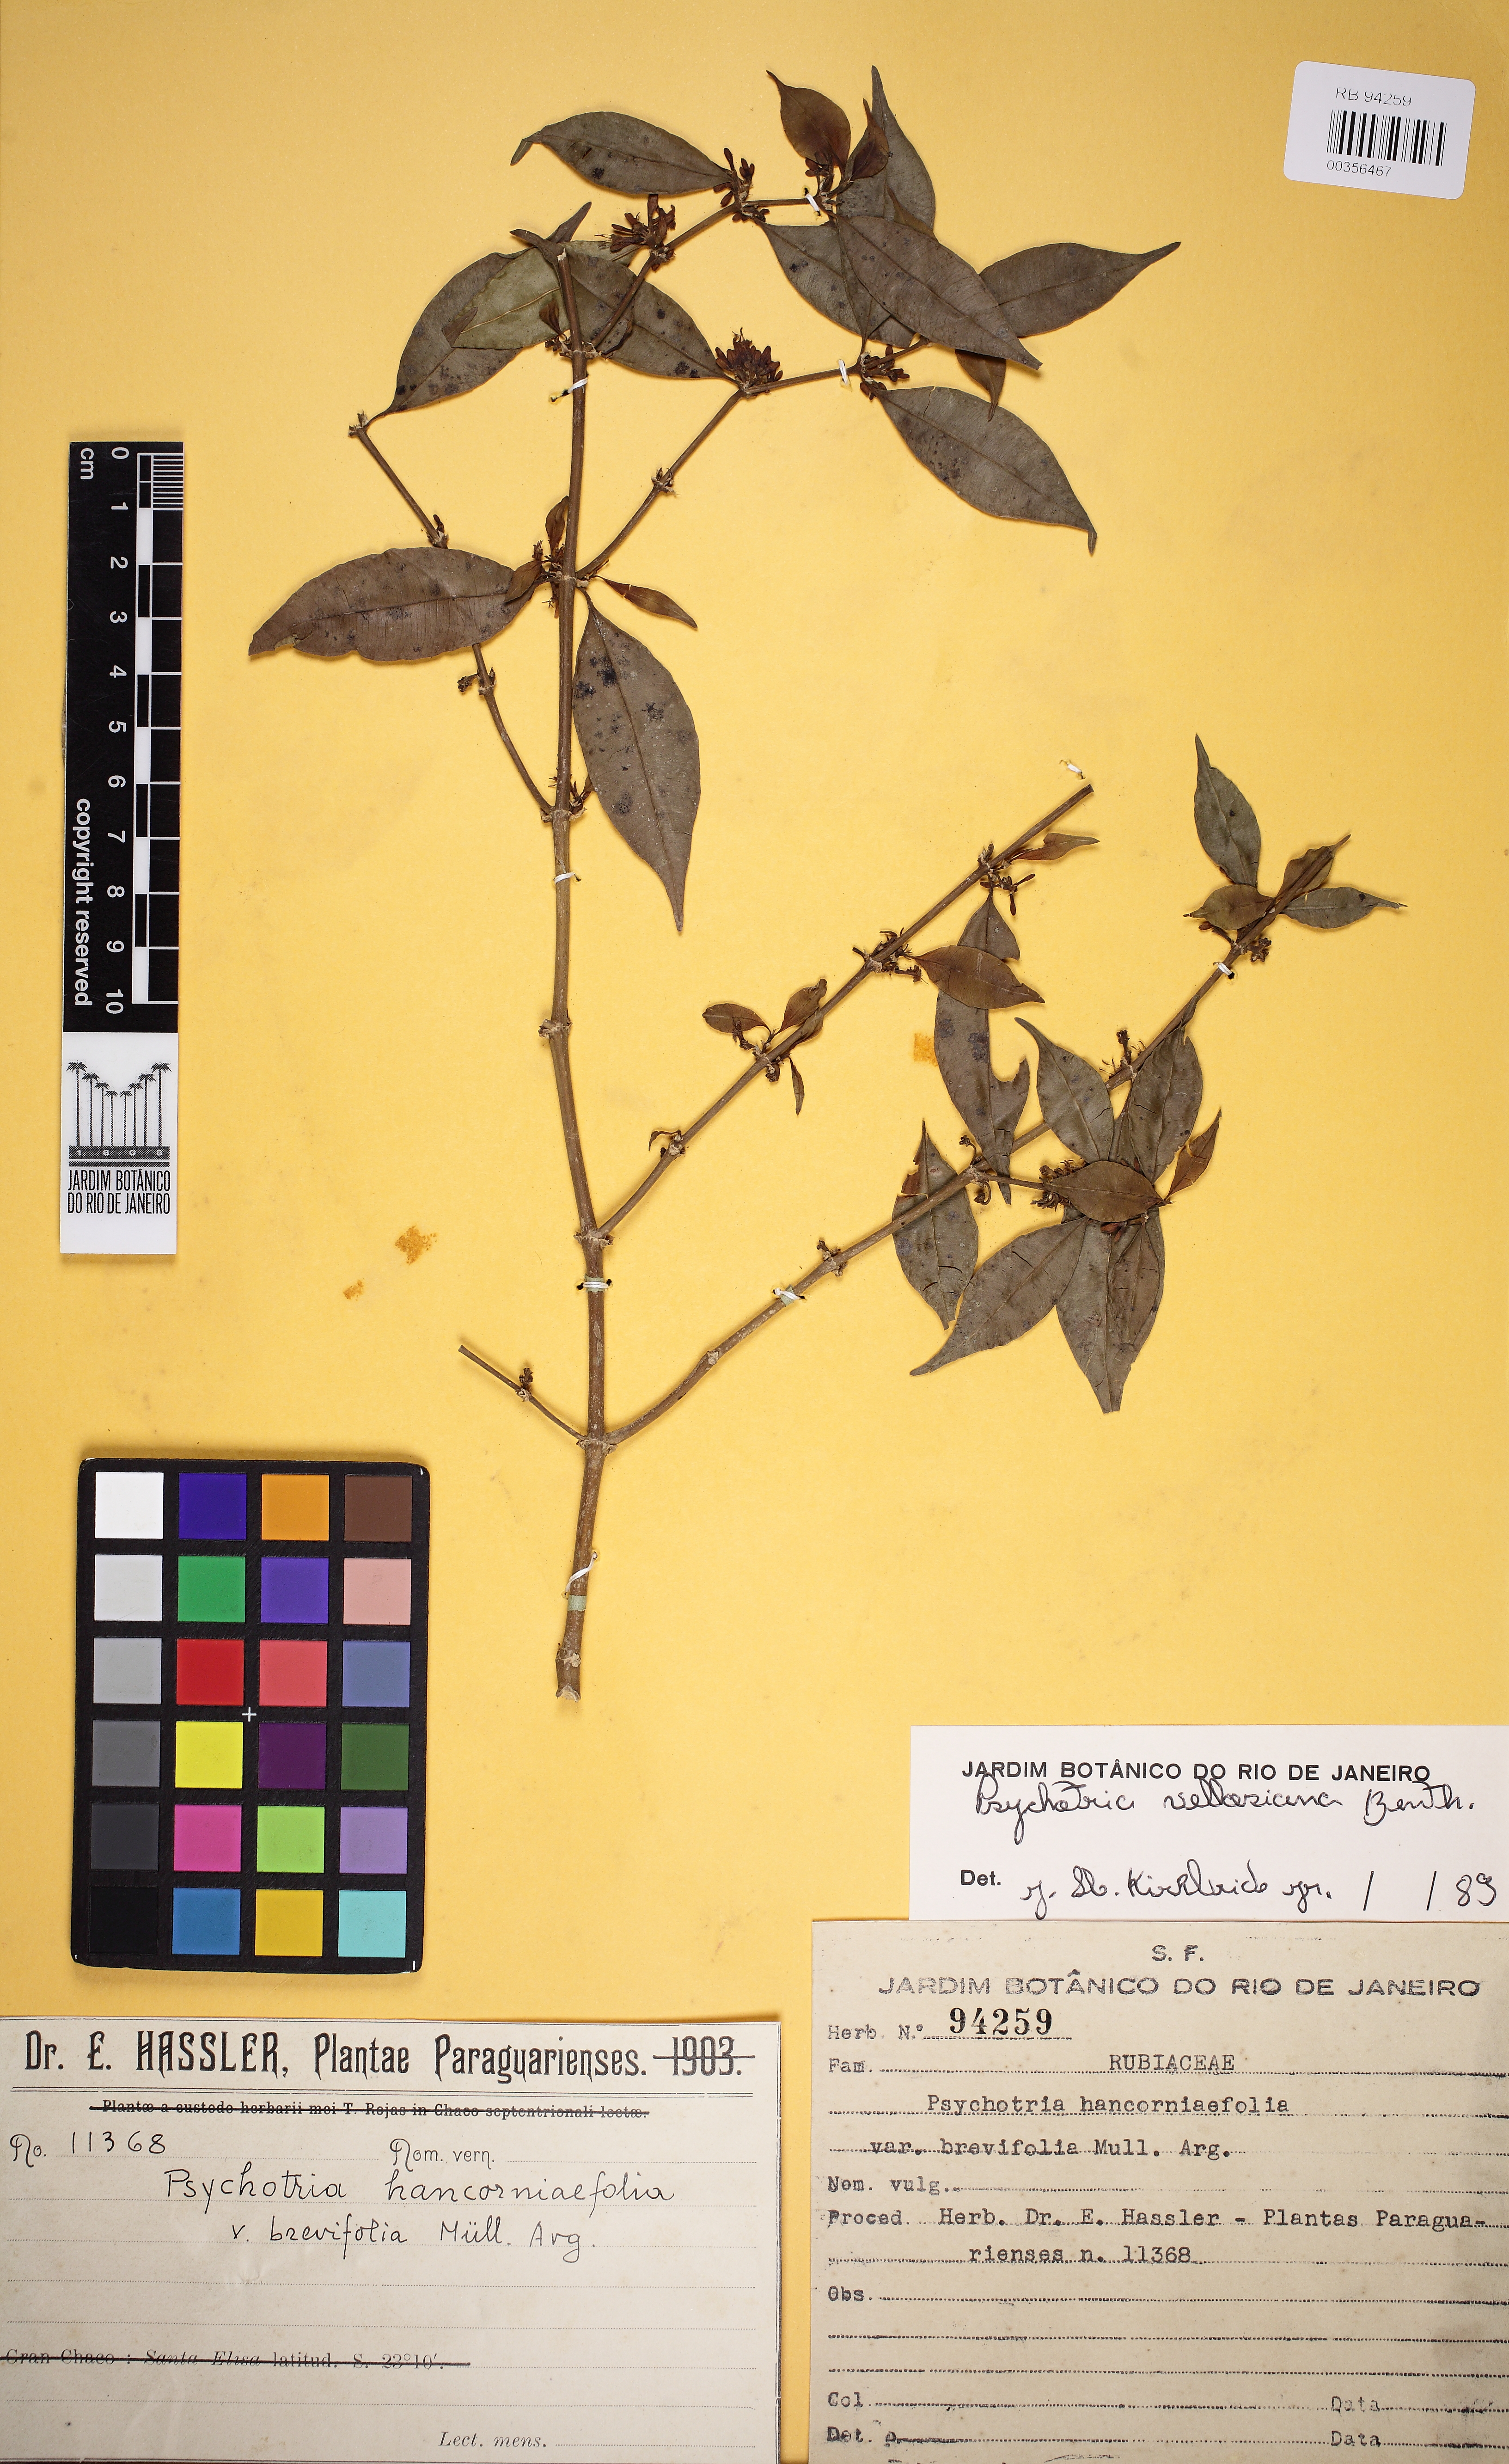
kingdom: Plantae
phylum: Tracheophyta
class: Magnoliopsida
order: Gentianales
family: Rubiaceae
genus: Palicourea
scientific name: Palicourea sessilis
